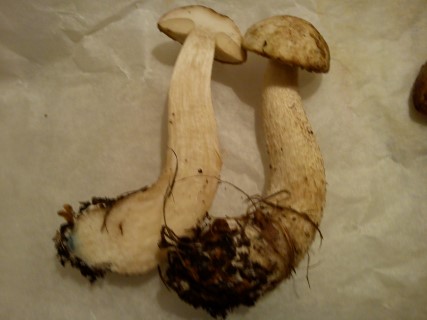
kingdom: Fungi
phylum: Basidiomycota
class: Agaricomycetes
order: Boletales
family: Boletaceae
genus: Leccinum
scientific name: Leccinum scabrum
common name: hvid skælrørhat
